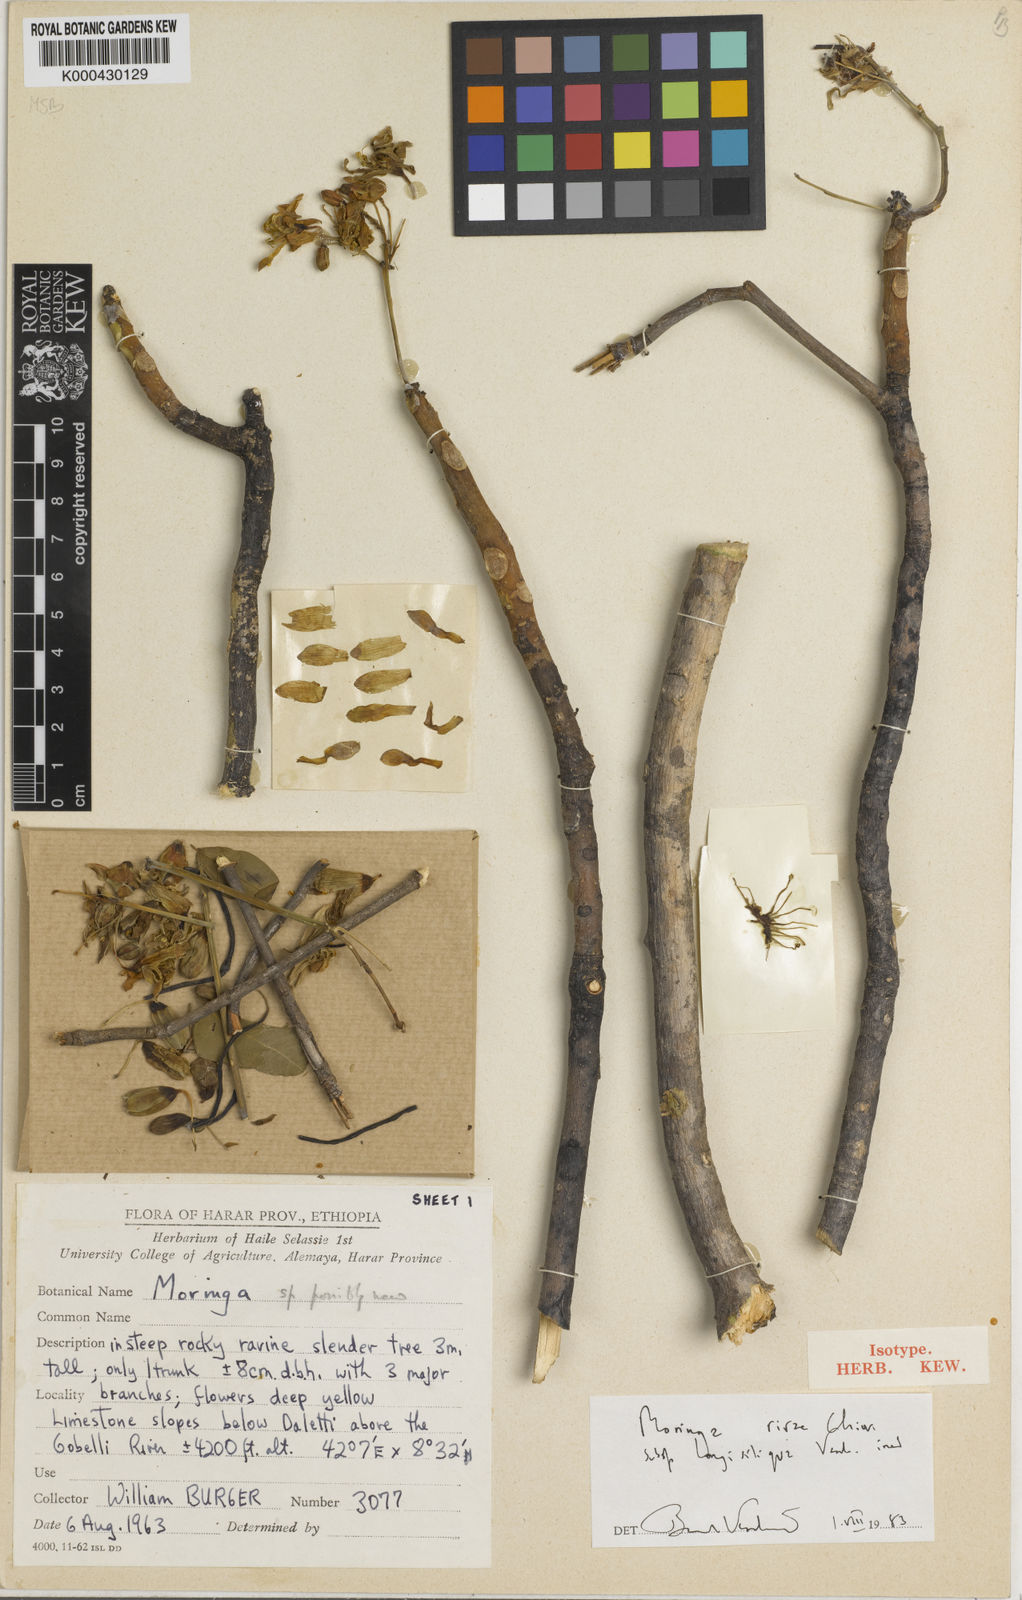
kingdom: Plantae
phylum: Tracheophyta
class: Magnoliopsida
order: Brassicales
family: Moringaceae
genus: Moringa
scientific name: Moringa rivae
